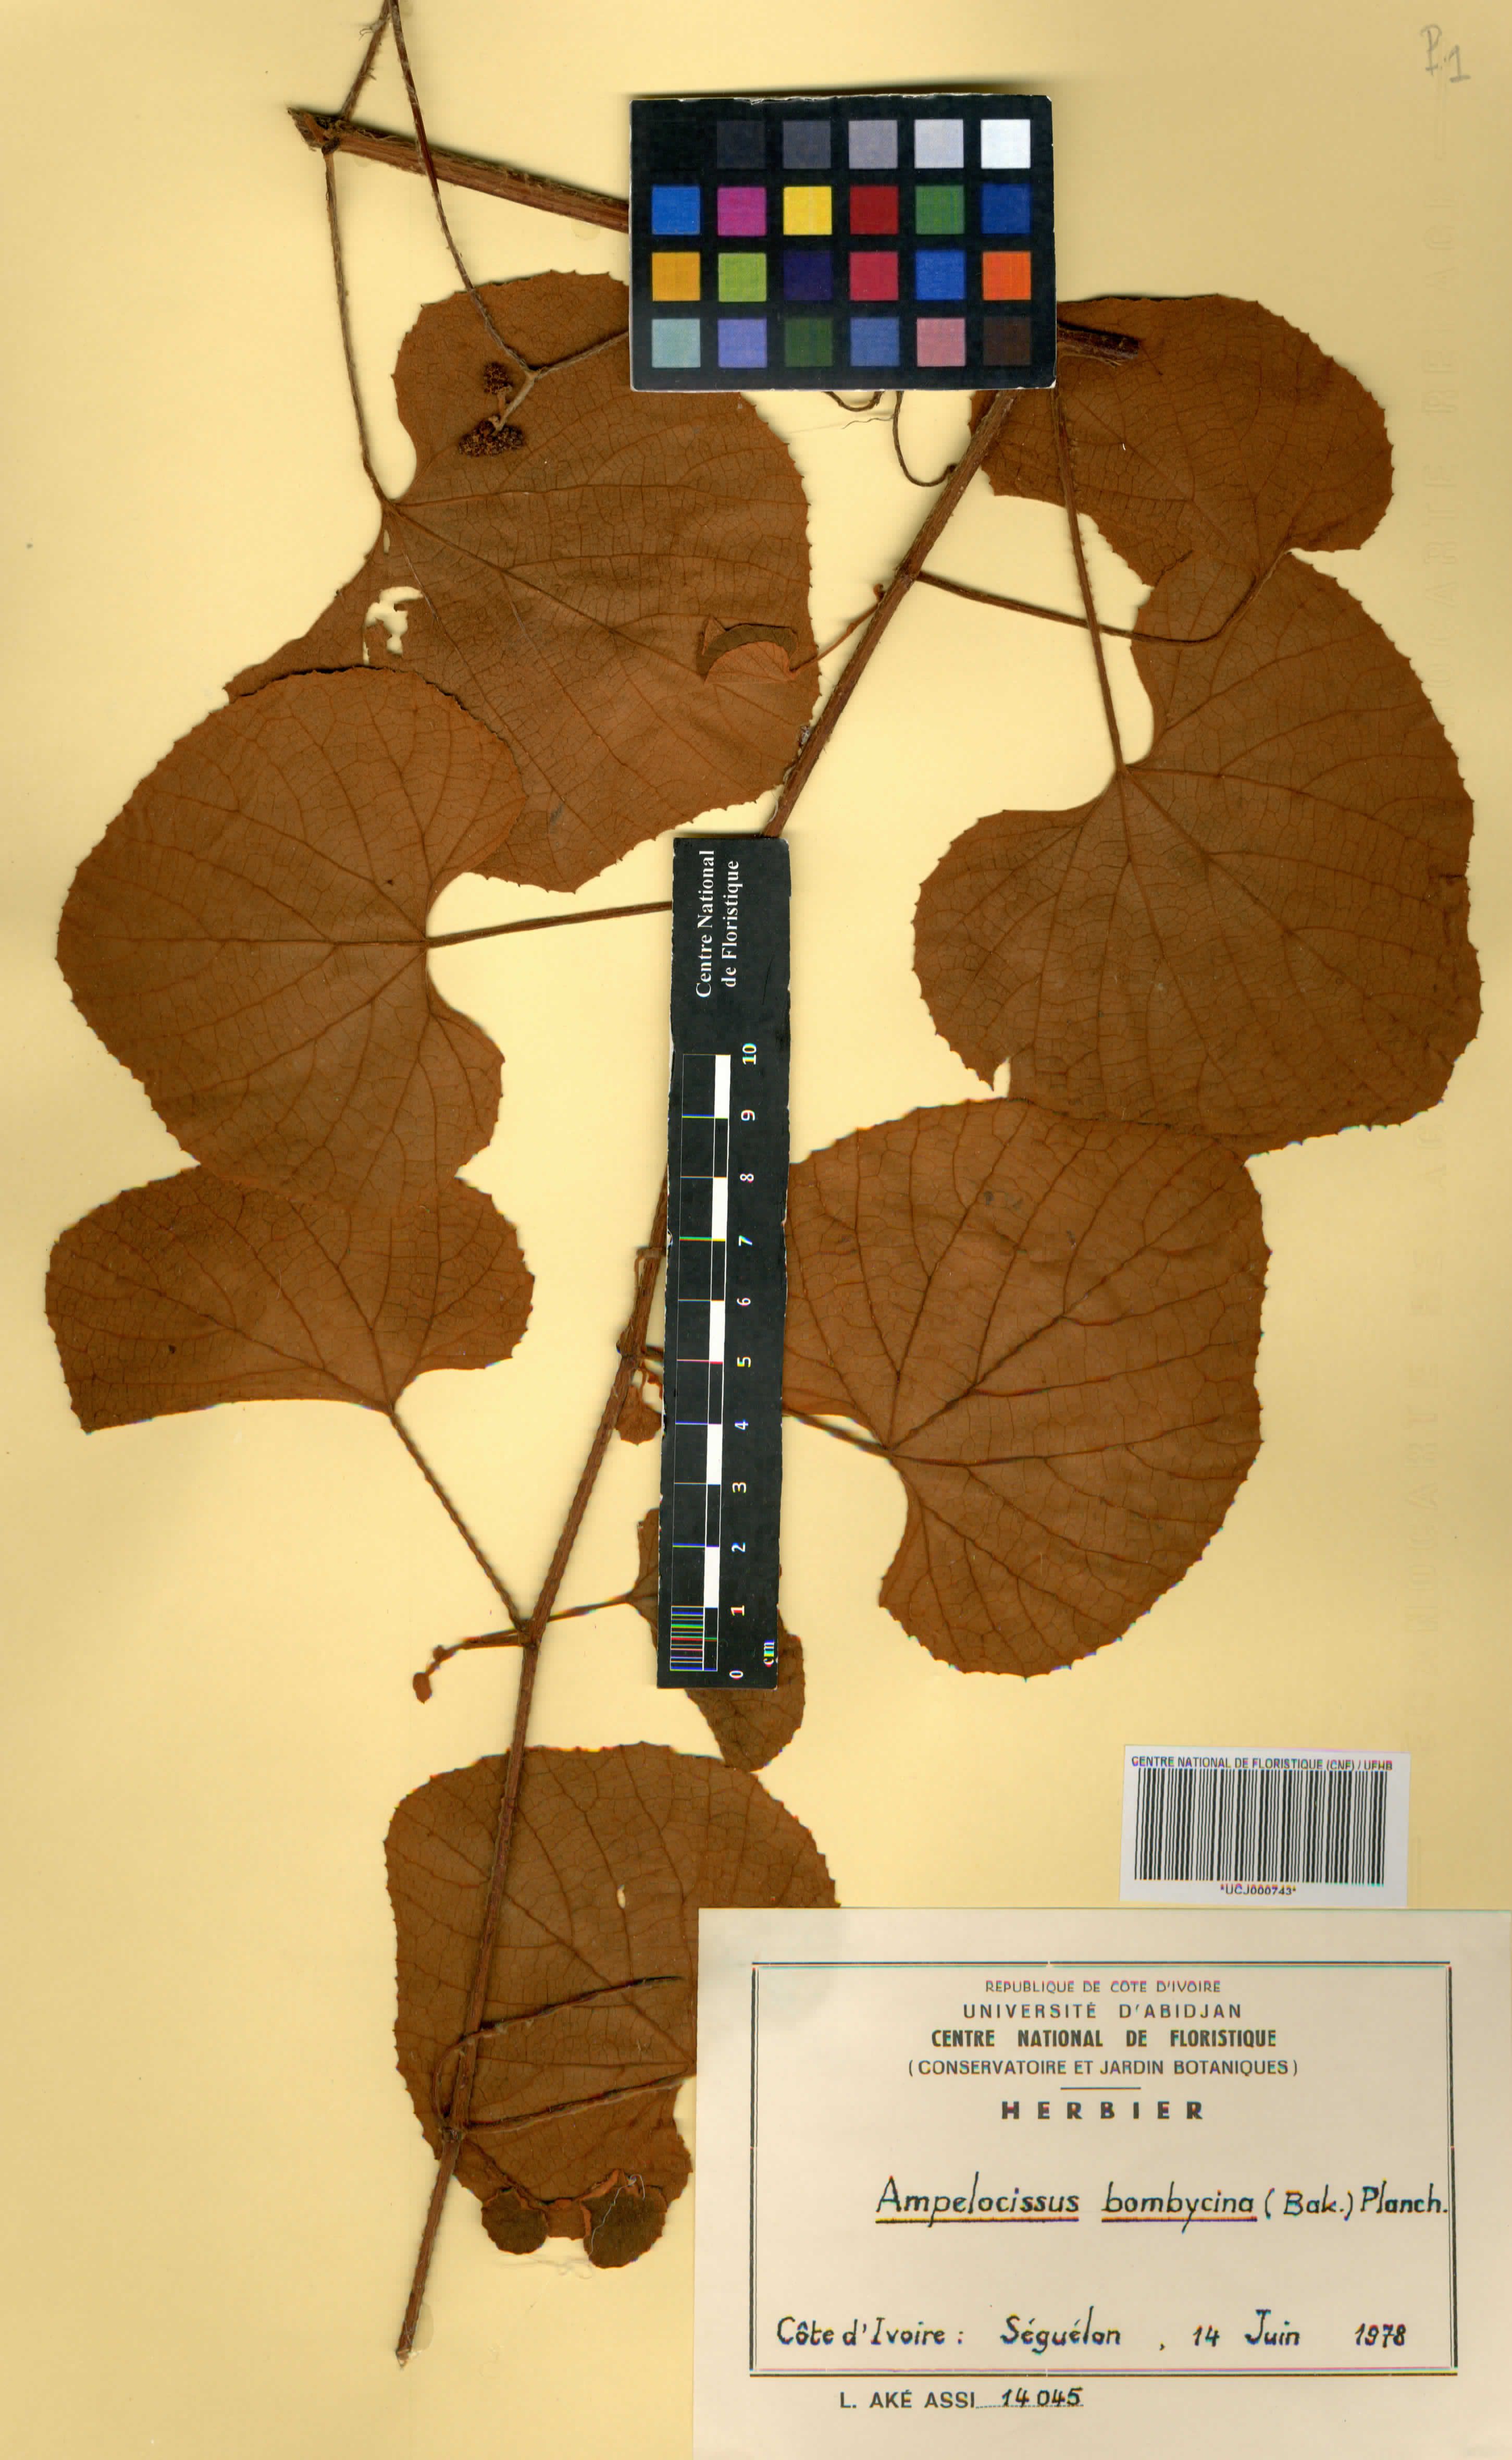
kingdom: Plantae
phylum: Tracheophyta
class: Magnoliopsida
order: Vitales
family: Vitaceae
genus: Ampelocissus
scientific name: Ampelocissus bombycina
